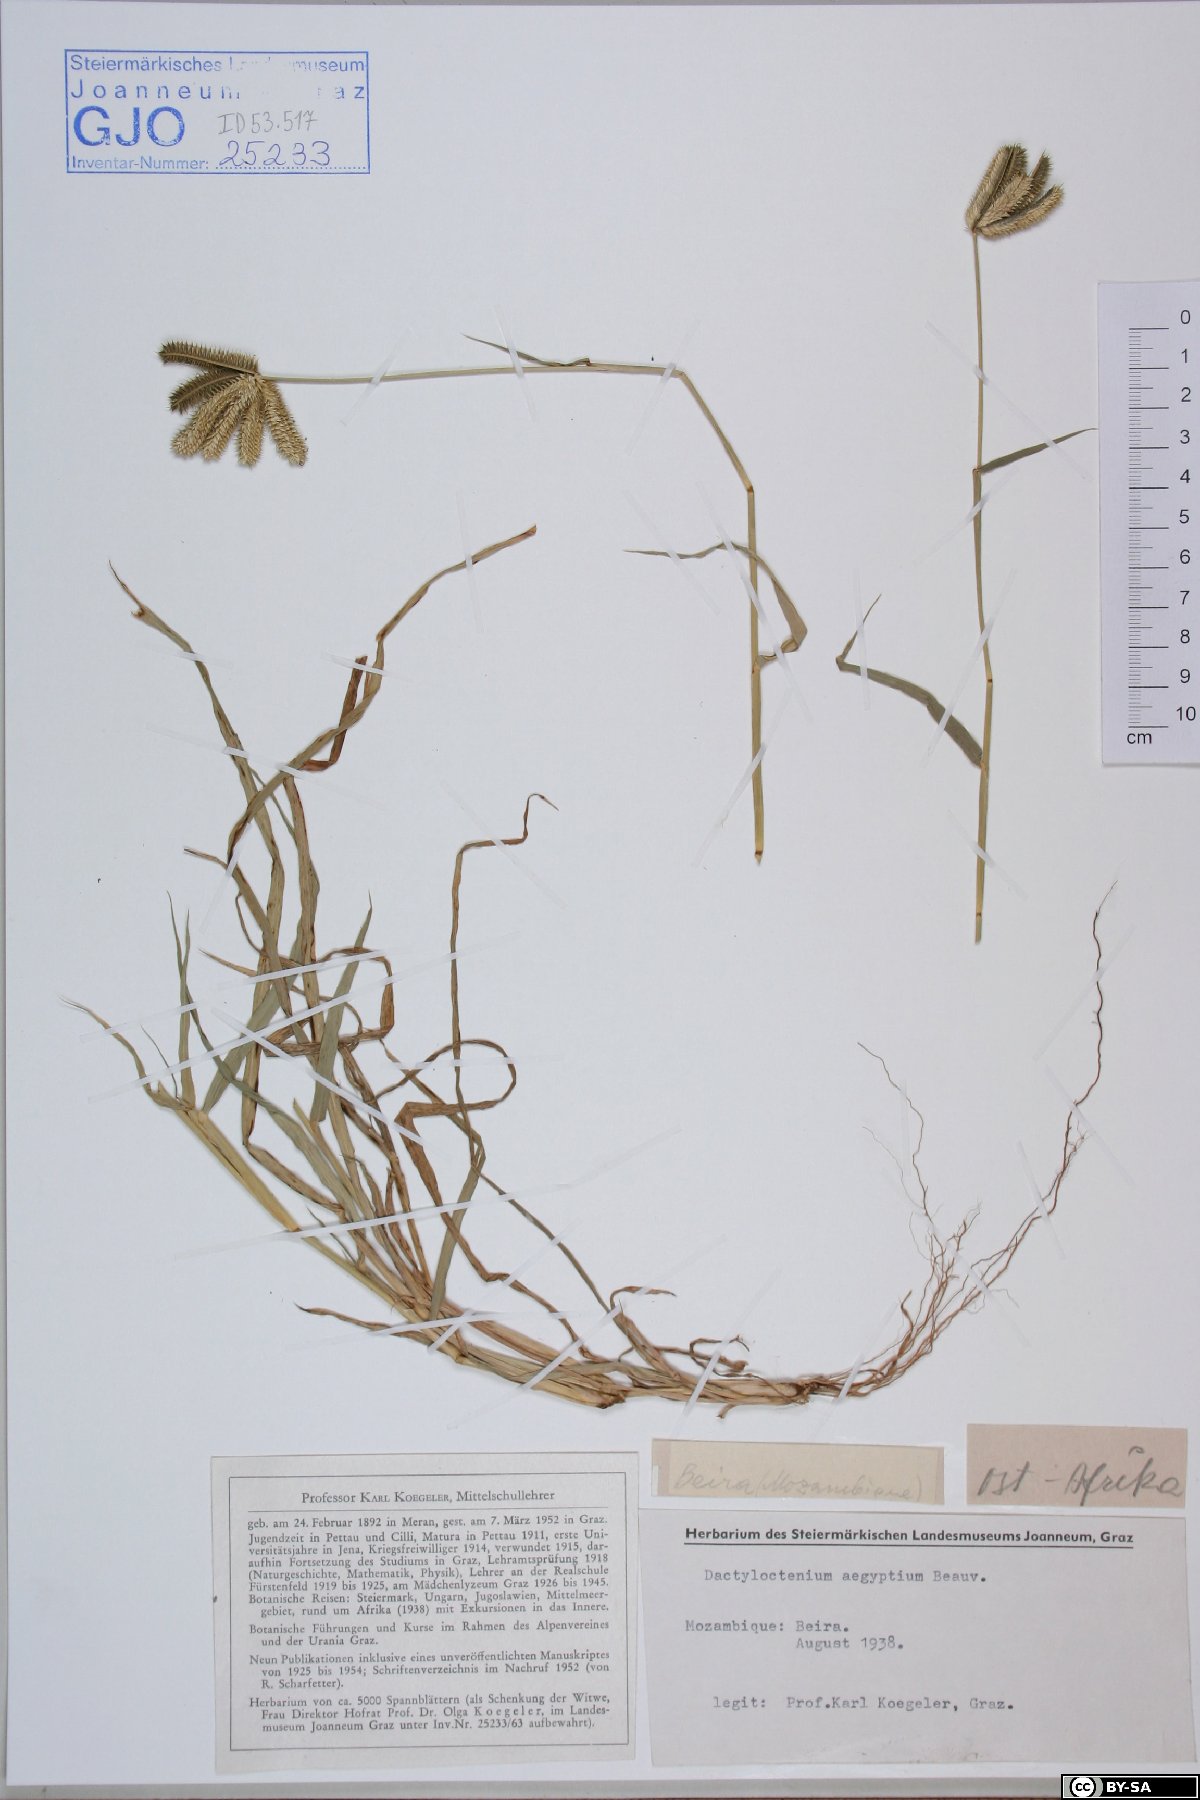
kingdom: Plantae
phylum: Tracheophyta
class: Liliopsida
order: Poales
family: Poaceae
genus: Dactyloctenium
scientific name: Dactyloctenium aegyptium
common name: Egyptian grass
